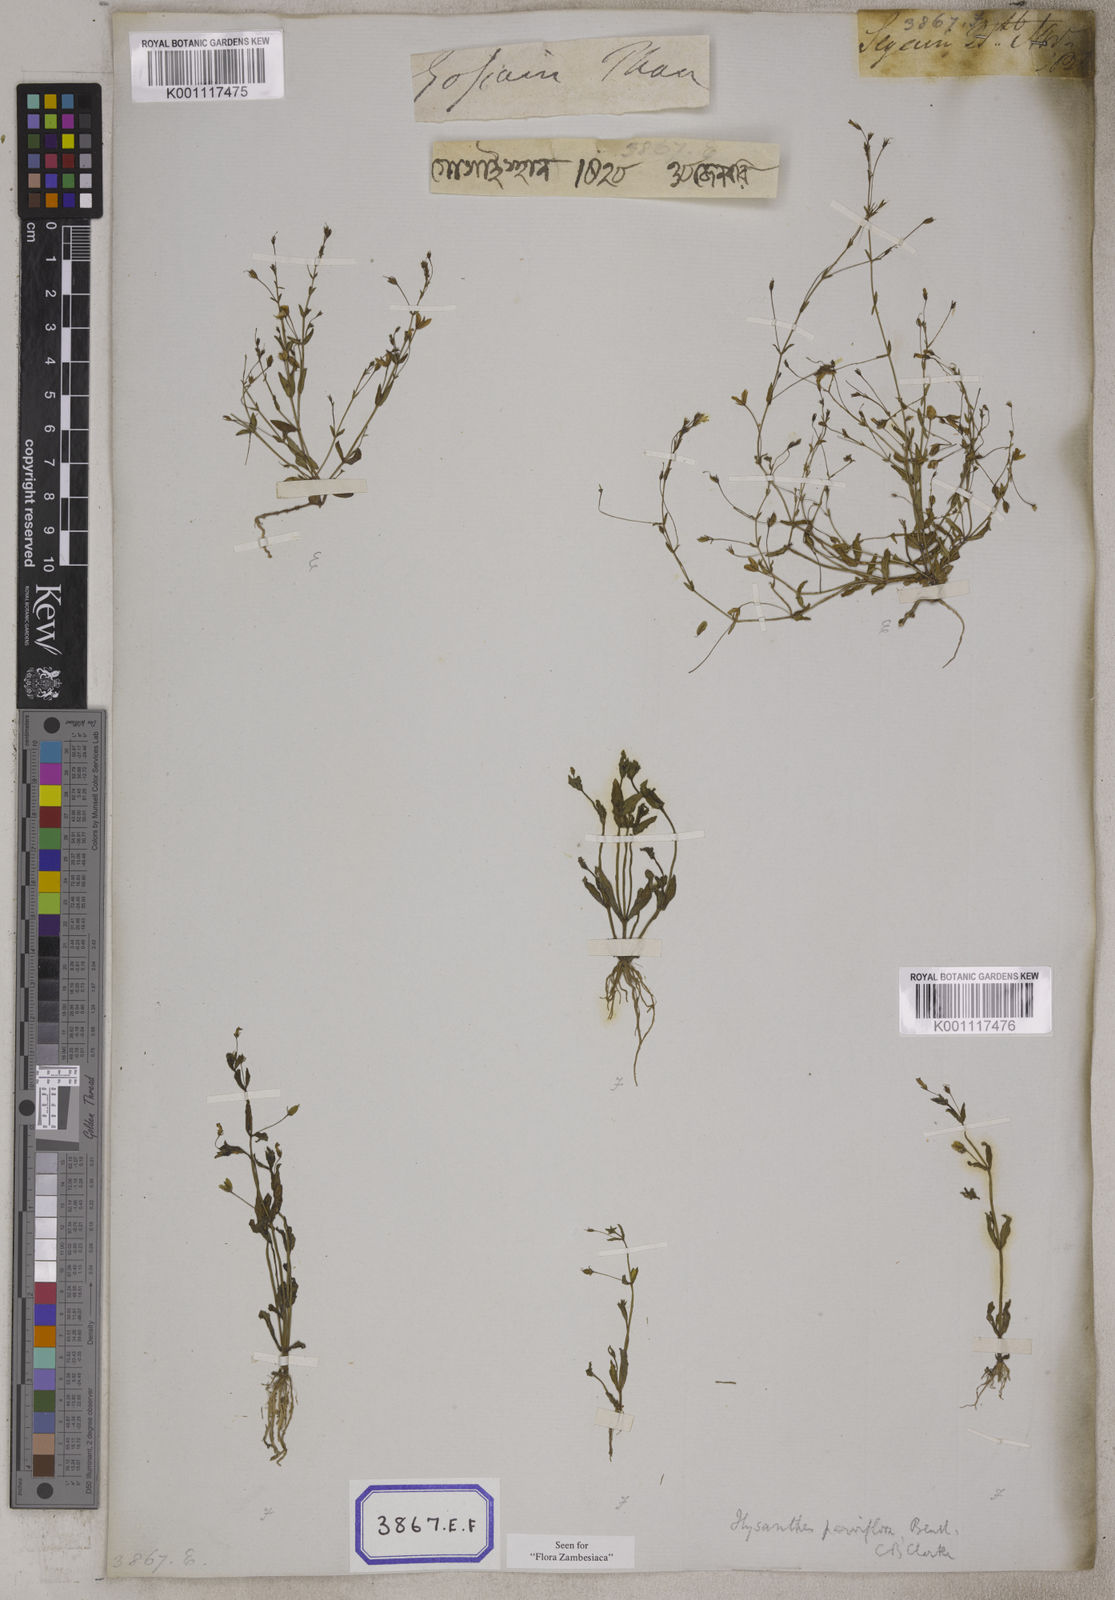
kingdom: Plantae
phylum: Tracheophyta
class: Magnoliopsida
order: Lamiales
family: Linderniaceae
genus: Lindernia
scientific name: Lindernia parviflora
